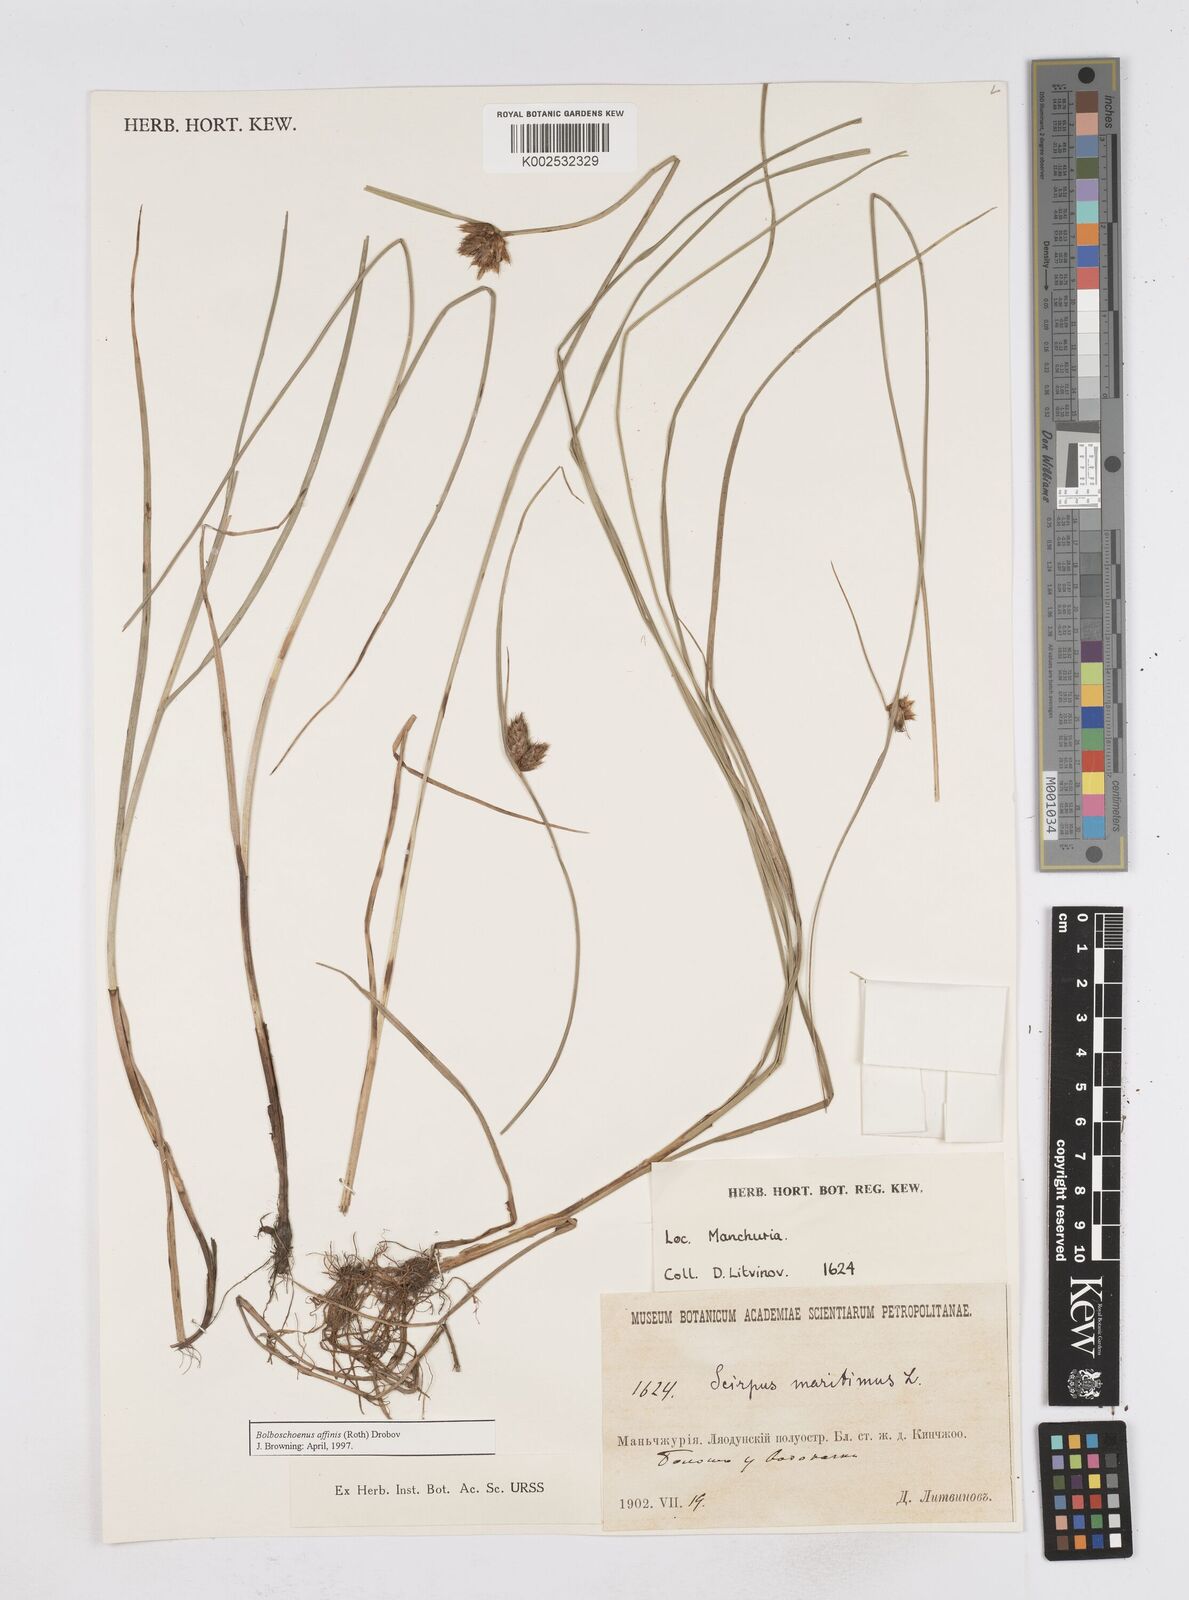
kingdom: Plantae
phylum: Tracheophyta
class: Liliopsida
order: Poales
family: Cyperaceae
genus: Bolboschoenus
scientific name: Bolboschoenus maritimus
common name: Sea club-rush
